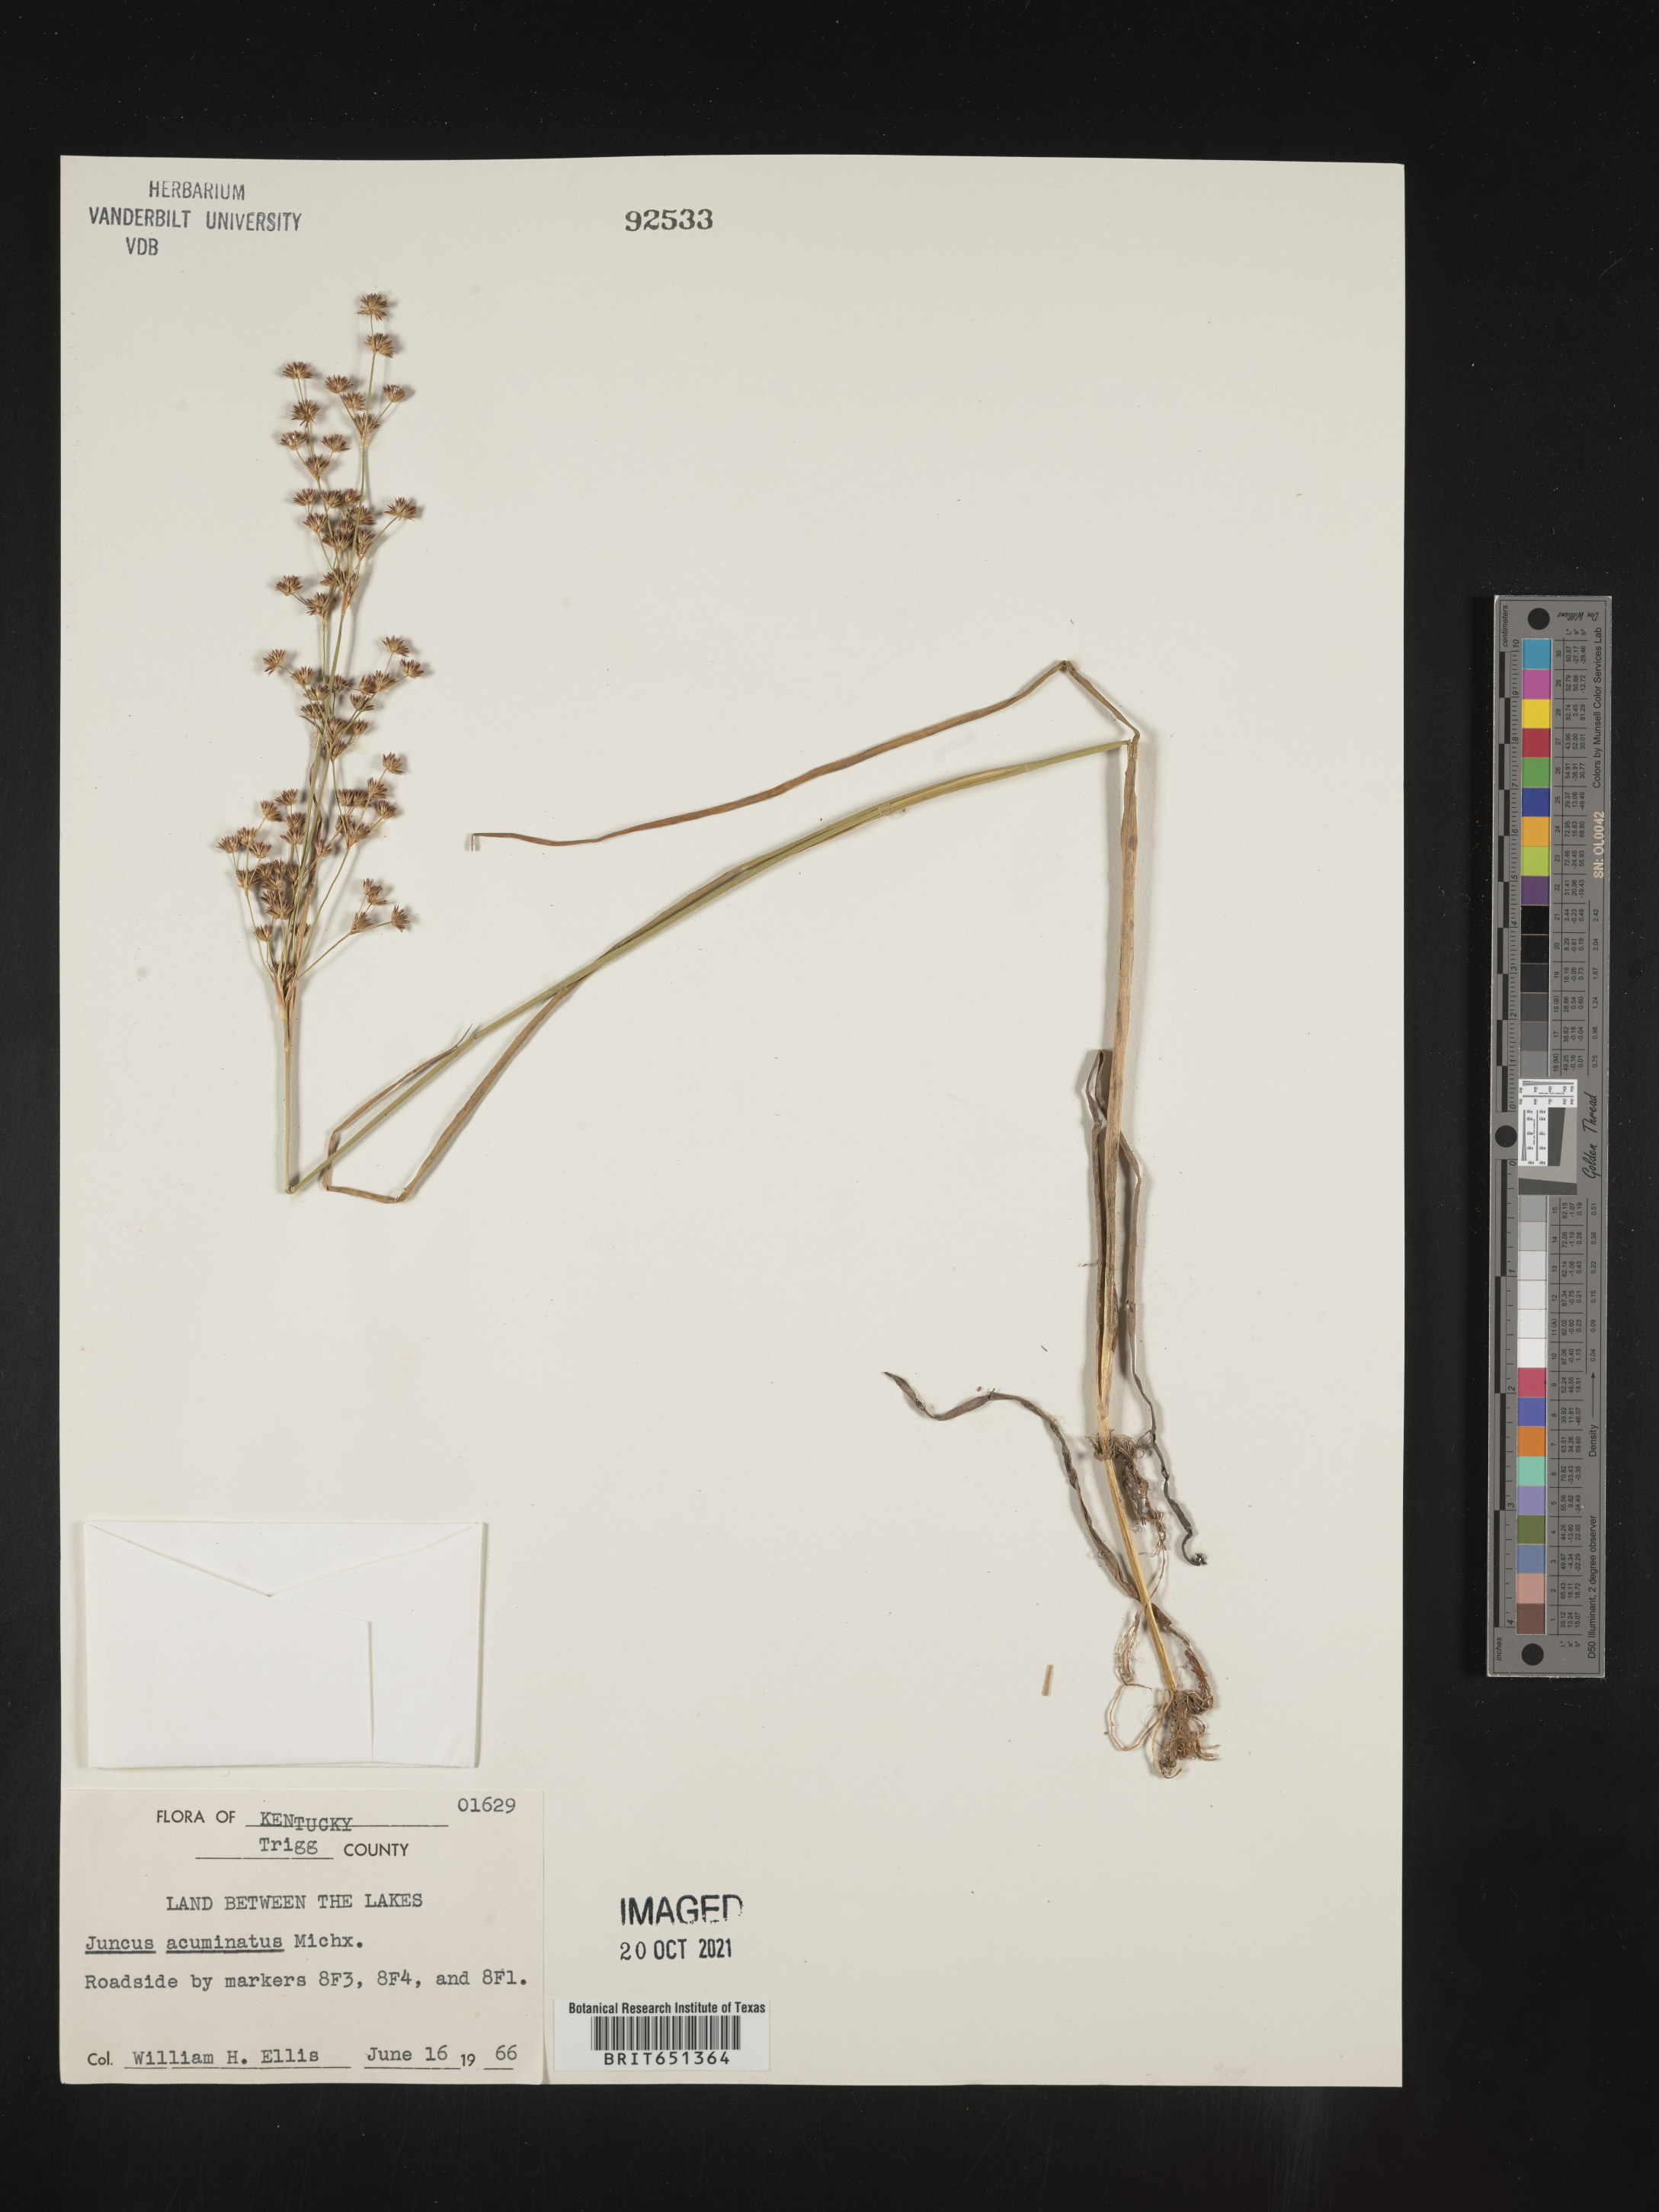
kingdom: Plantae
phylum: Tracheophyta
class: Liliopsida
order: Poales
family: Juncaceae
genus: Juncus
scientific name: Juncus acuminatus
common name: Knotty-leaved rush
